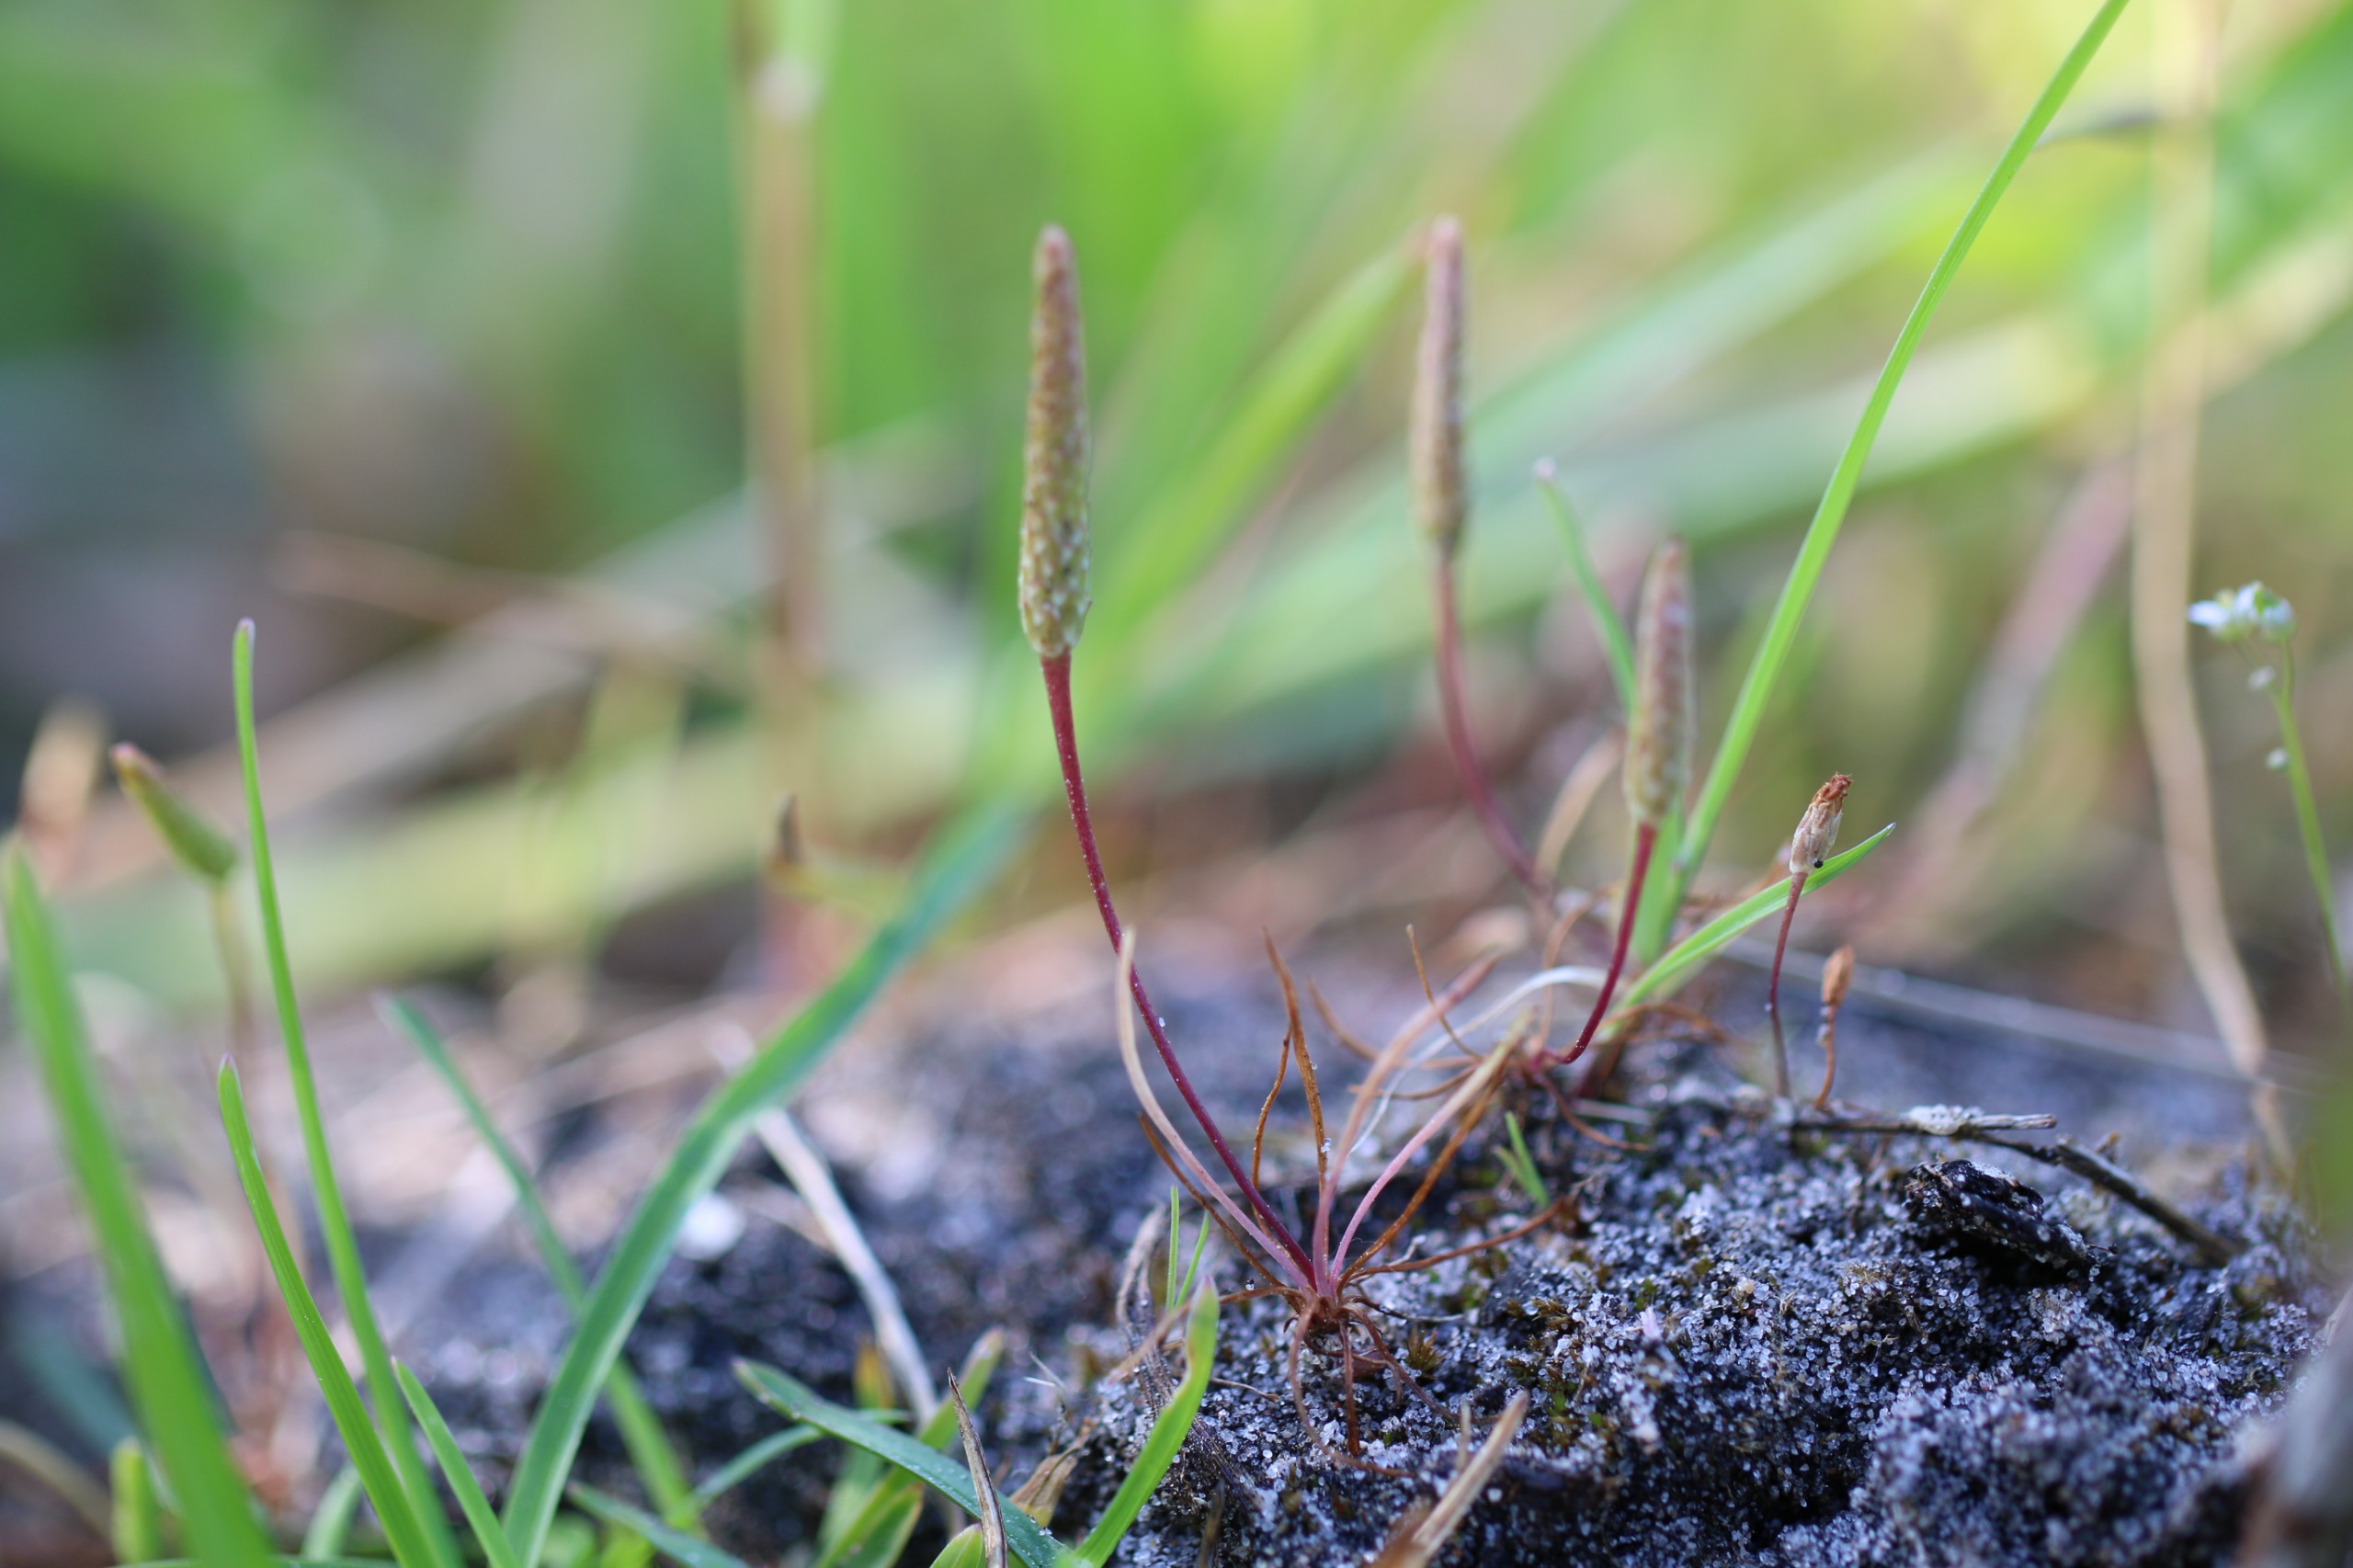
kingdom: Plantae
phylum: Tracheophyta
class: Magnoliopsida
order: Ranunculales
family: Ranunculaceae
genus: Myosurus
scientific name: Myosurus minimus
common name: Musehale
